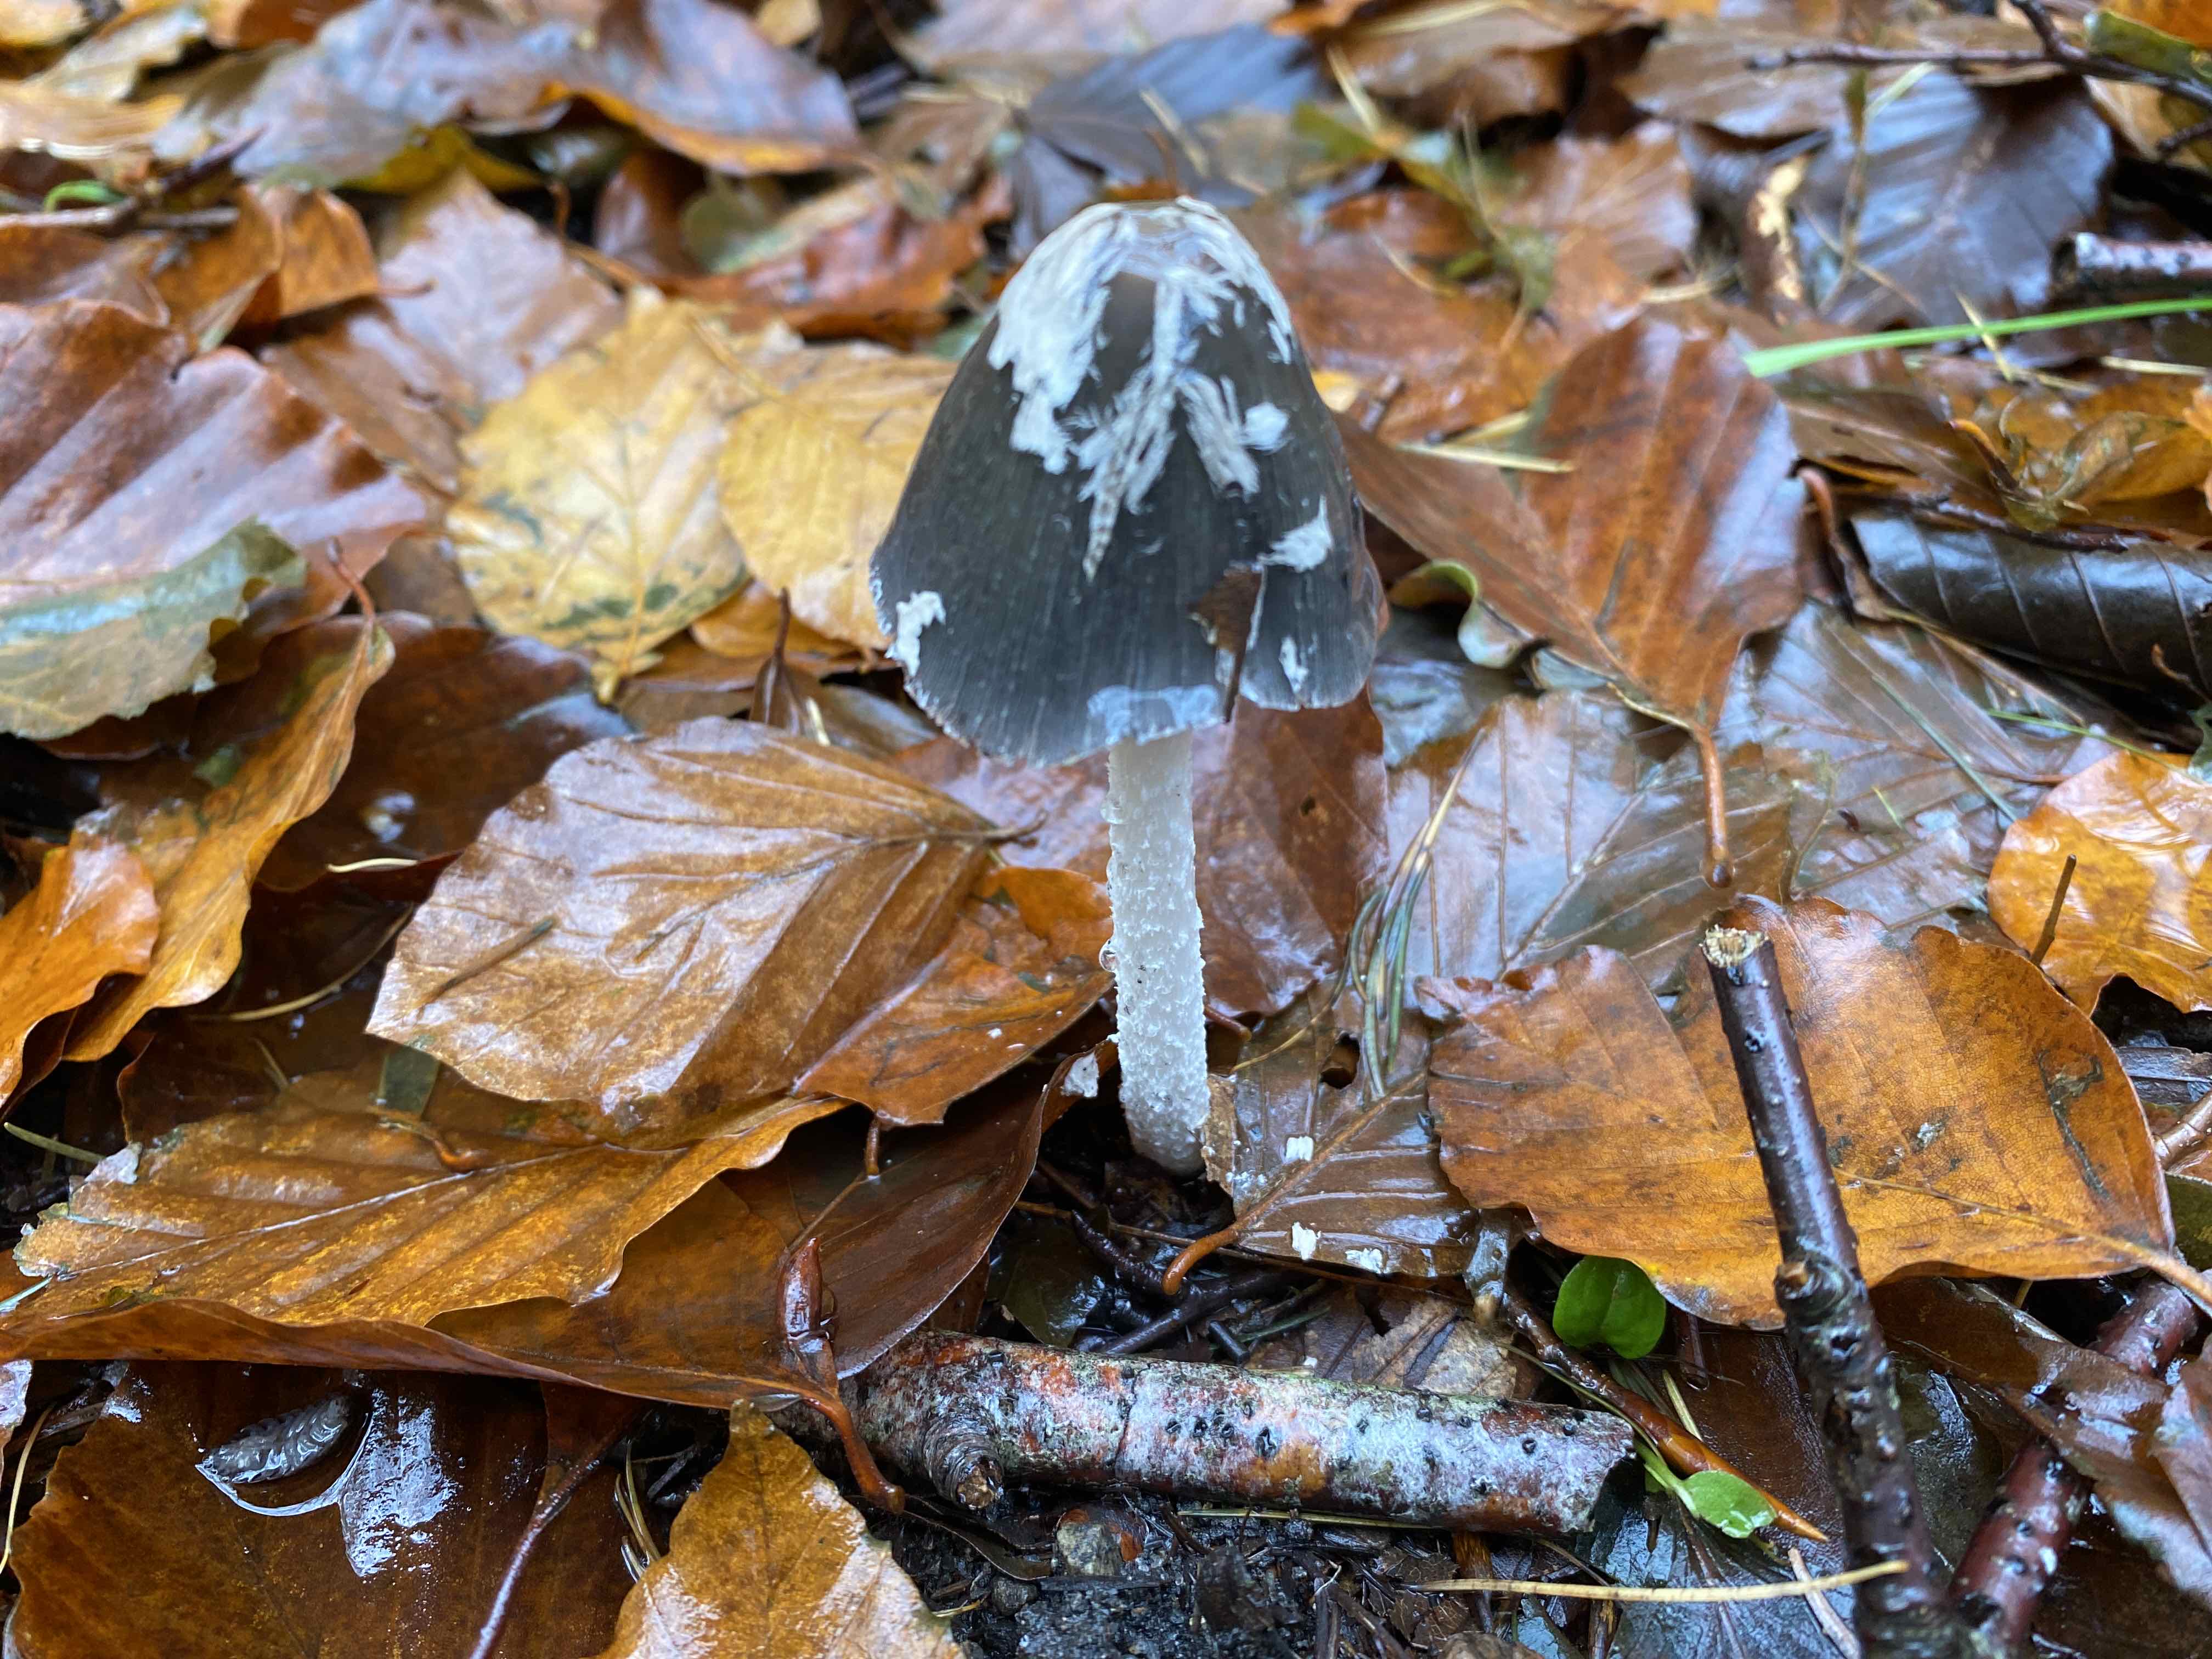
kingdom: Fungi
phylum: Basidiomycota
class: Agaricomycetes
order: Agaricales
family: Psathyrellaceae
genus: Coprinopsis
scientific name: Coprinopsis picacea
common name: skade-blækhat
